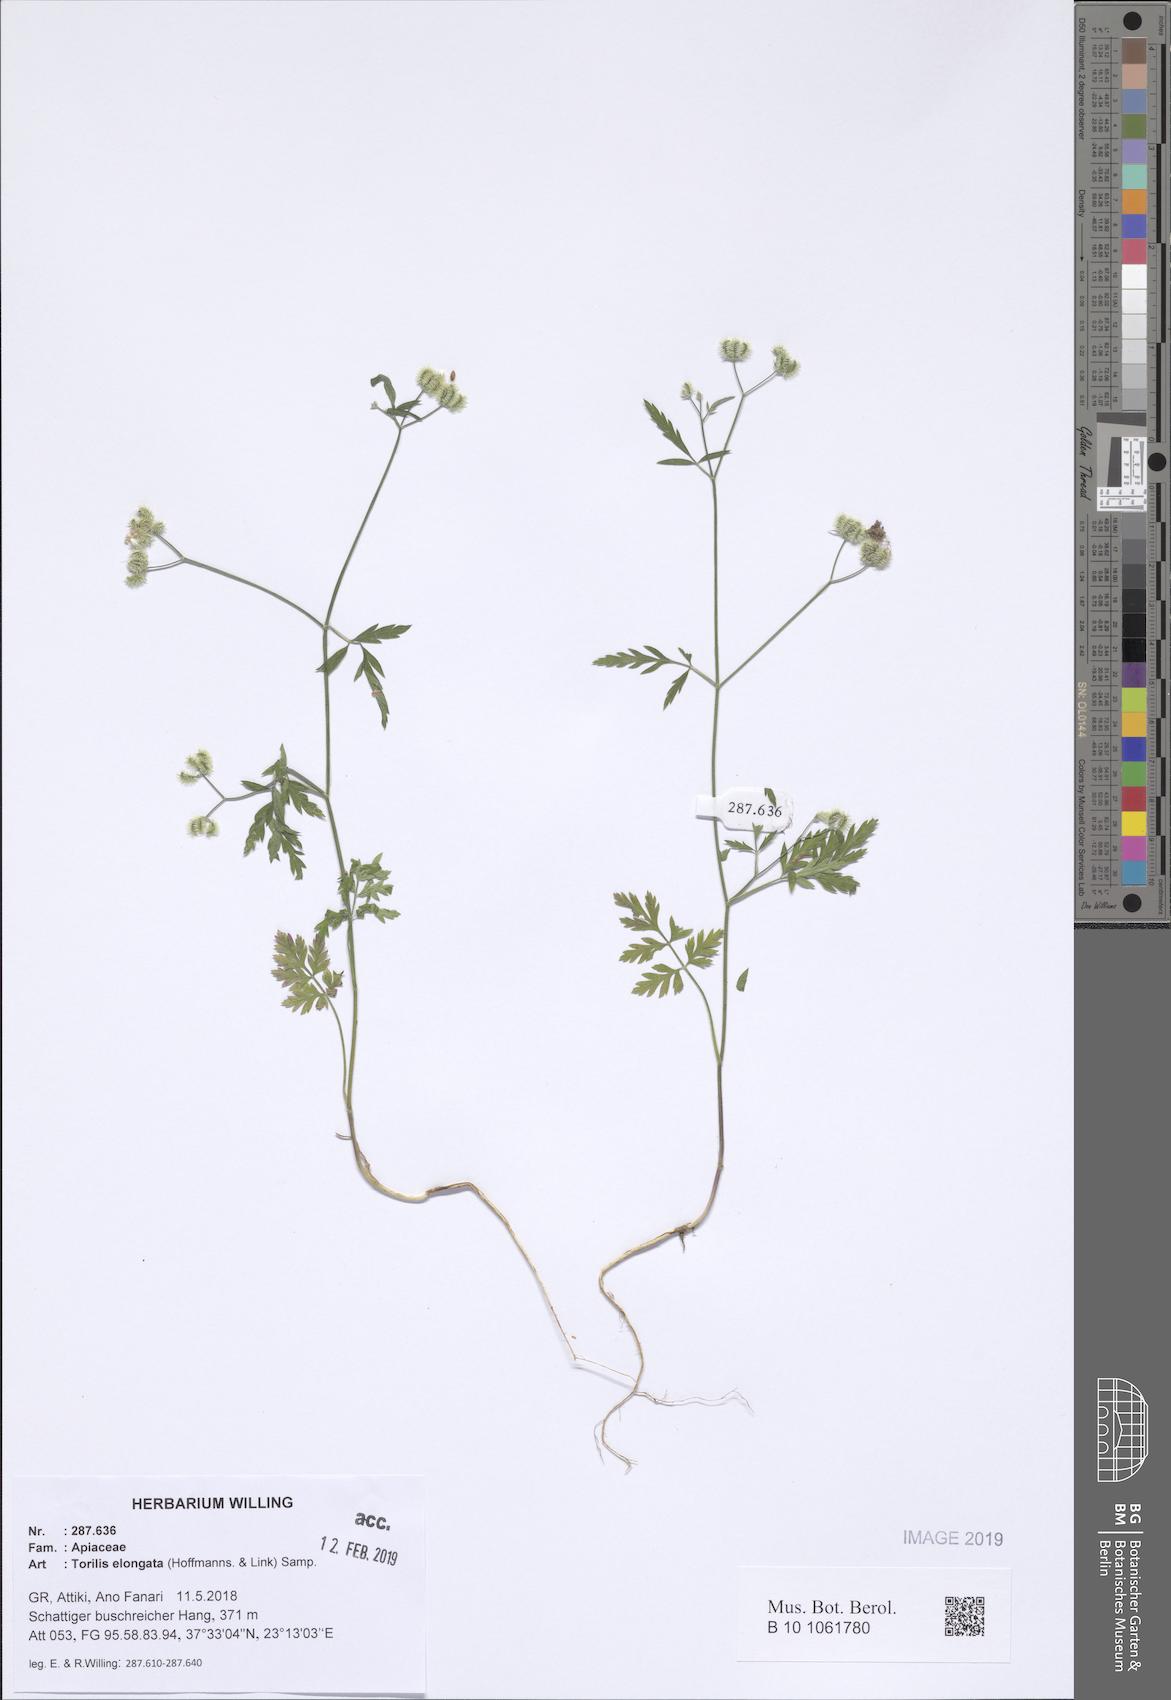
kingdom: Plantae
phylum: Tracheophyta
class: Magnoliopsida
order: Apiales
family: Apiaceae
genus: Torilis
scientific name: Torilis elongata
